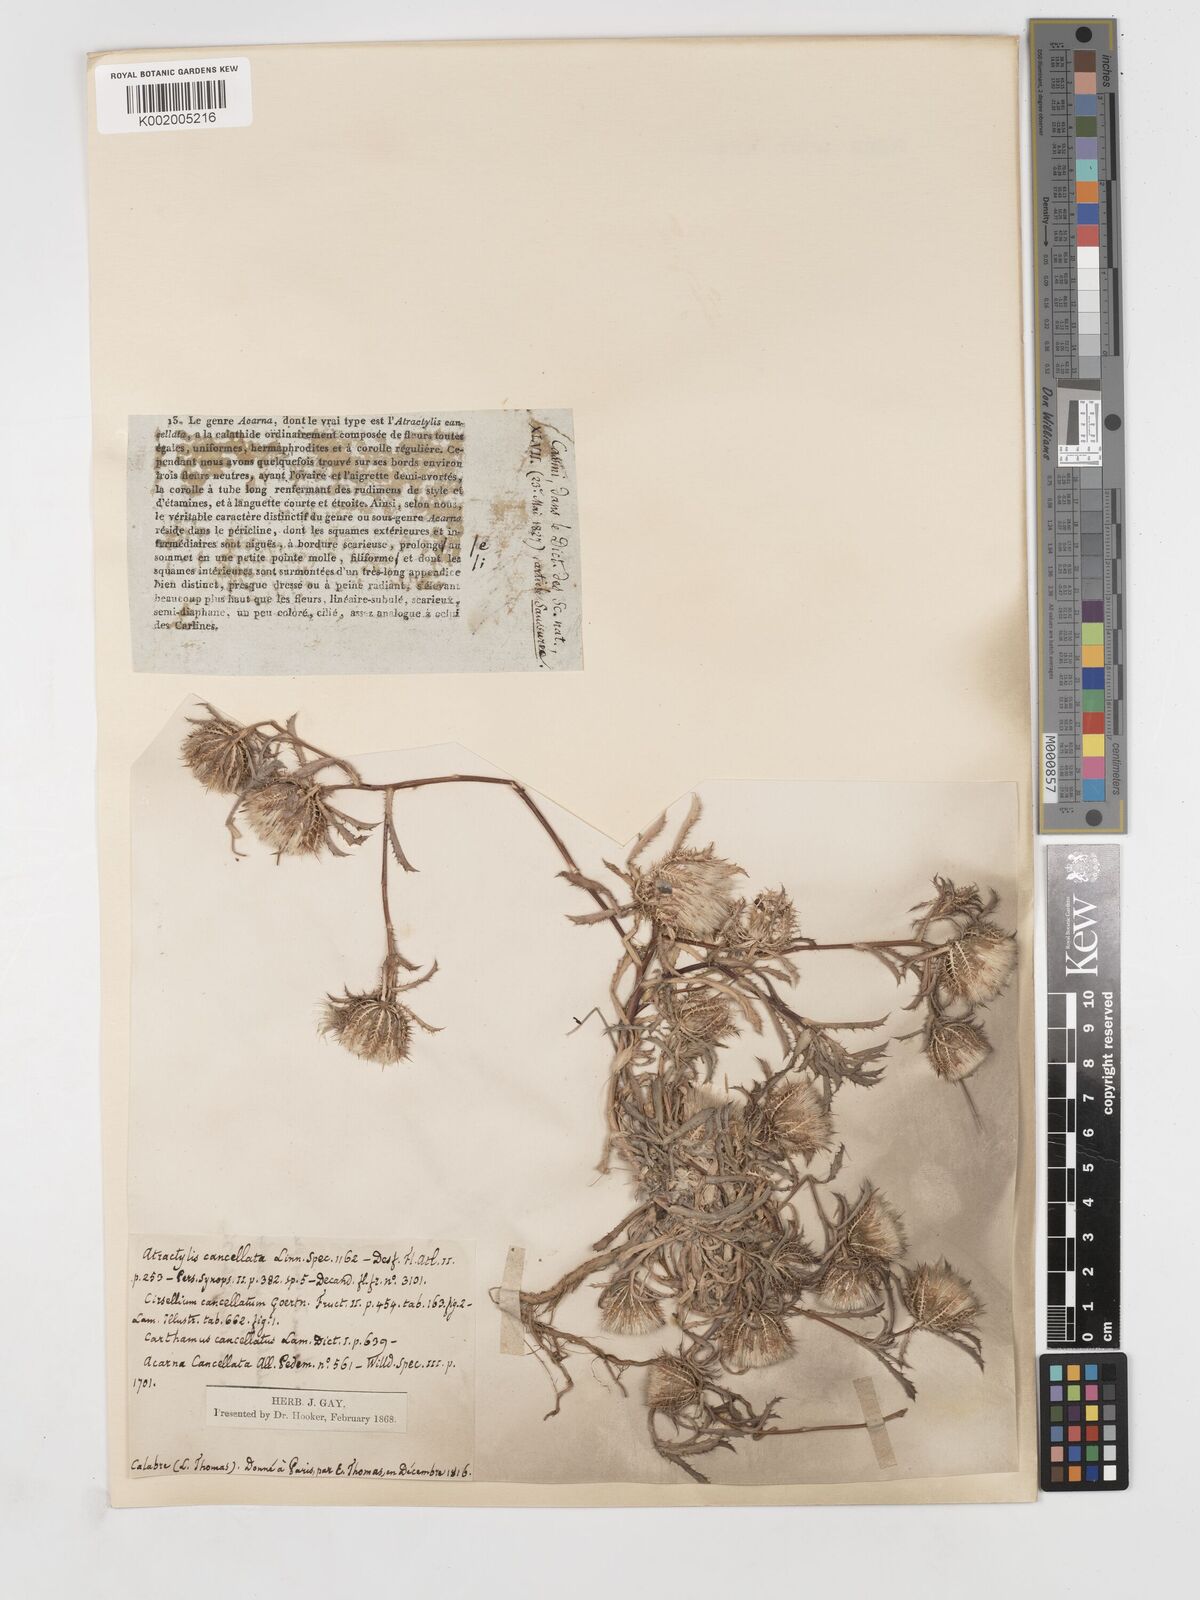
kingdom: Plantae
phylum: Tracheophyta
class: Magnoliopsida
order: Asterales
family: Asteraceae
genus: Atractylis
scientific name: Atractylis cancellata
